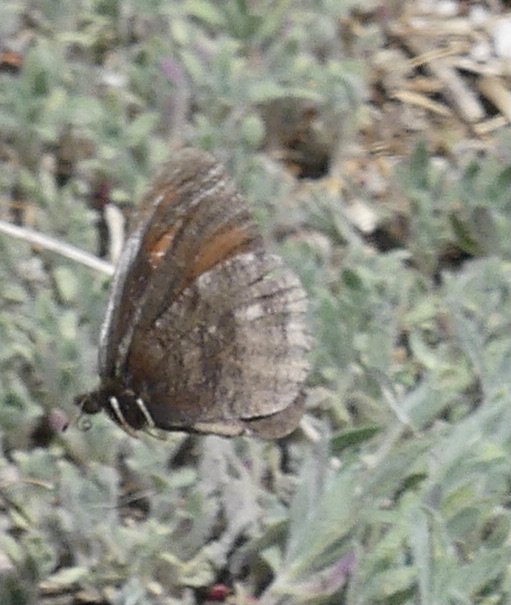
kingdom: Animalia
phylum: Arthropoda
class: Insecta
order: Lepidoptera
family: Nymphalidae
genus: Erebia
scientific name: Erebia discoidalis
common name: Red-disked Alpine
